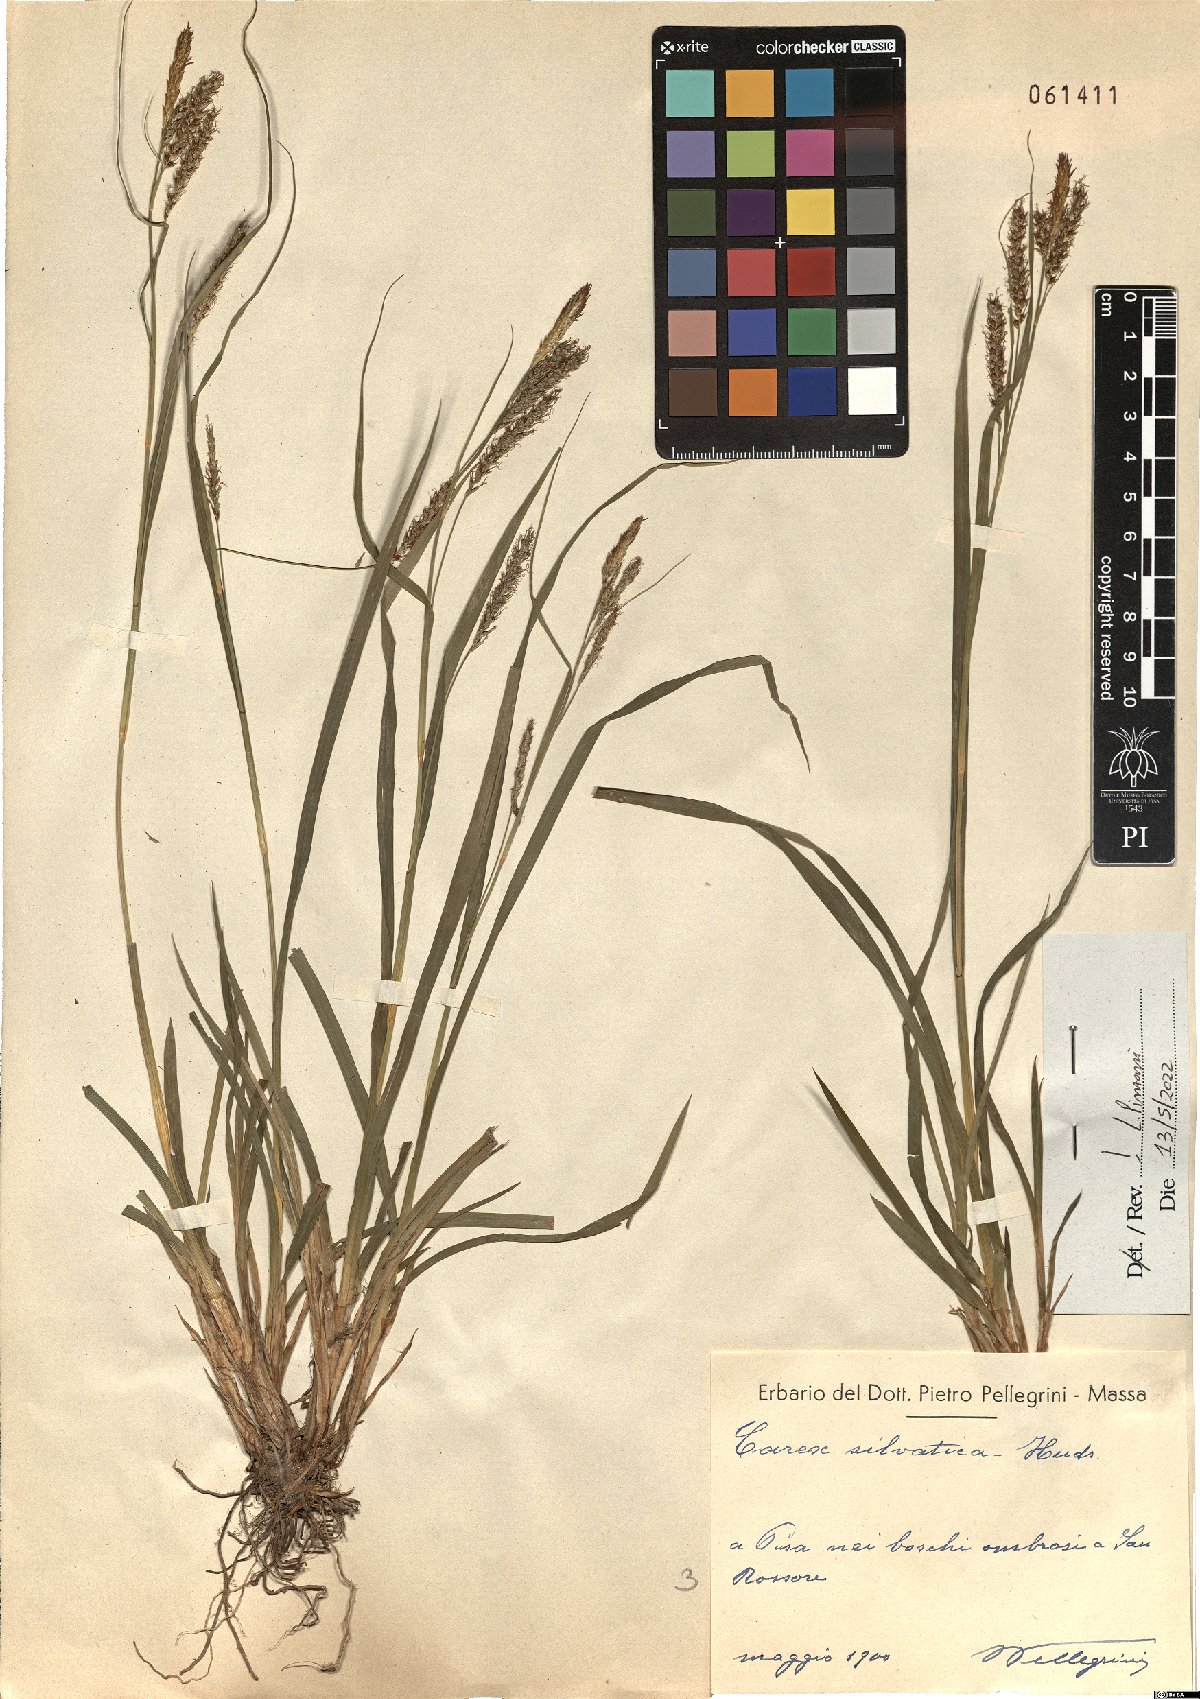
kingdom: Plantae
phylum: Tracheophyta
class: Liliopsida
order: Poales
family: Cyperaceae
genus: Carex
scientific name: Carex sylvatica
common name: Wood-sedge
